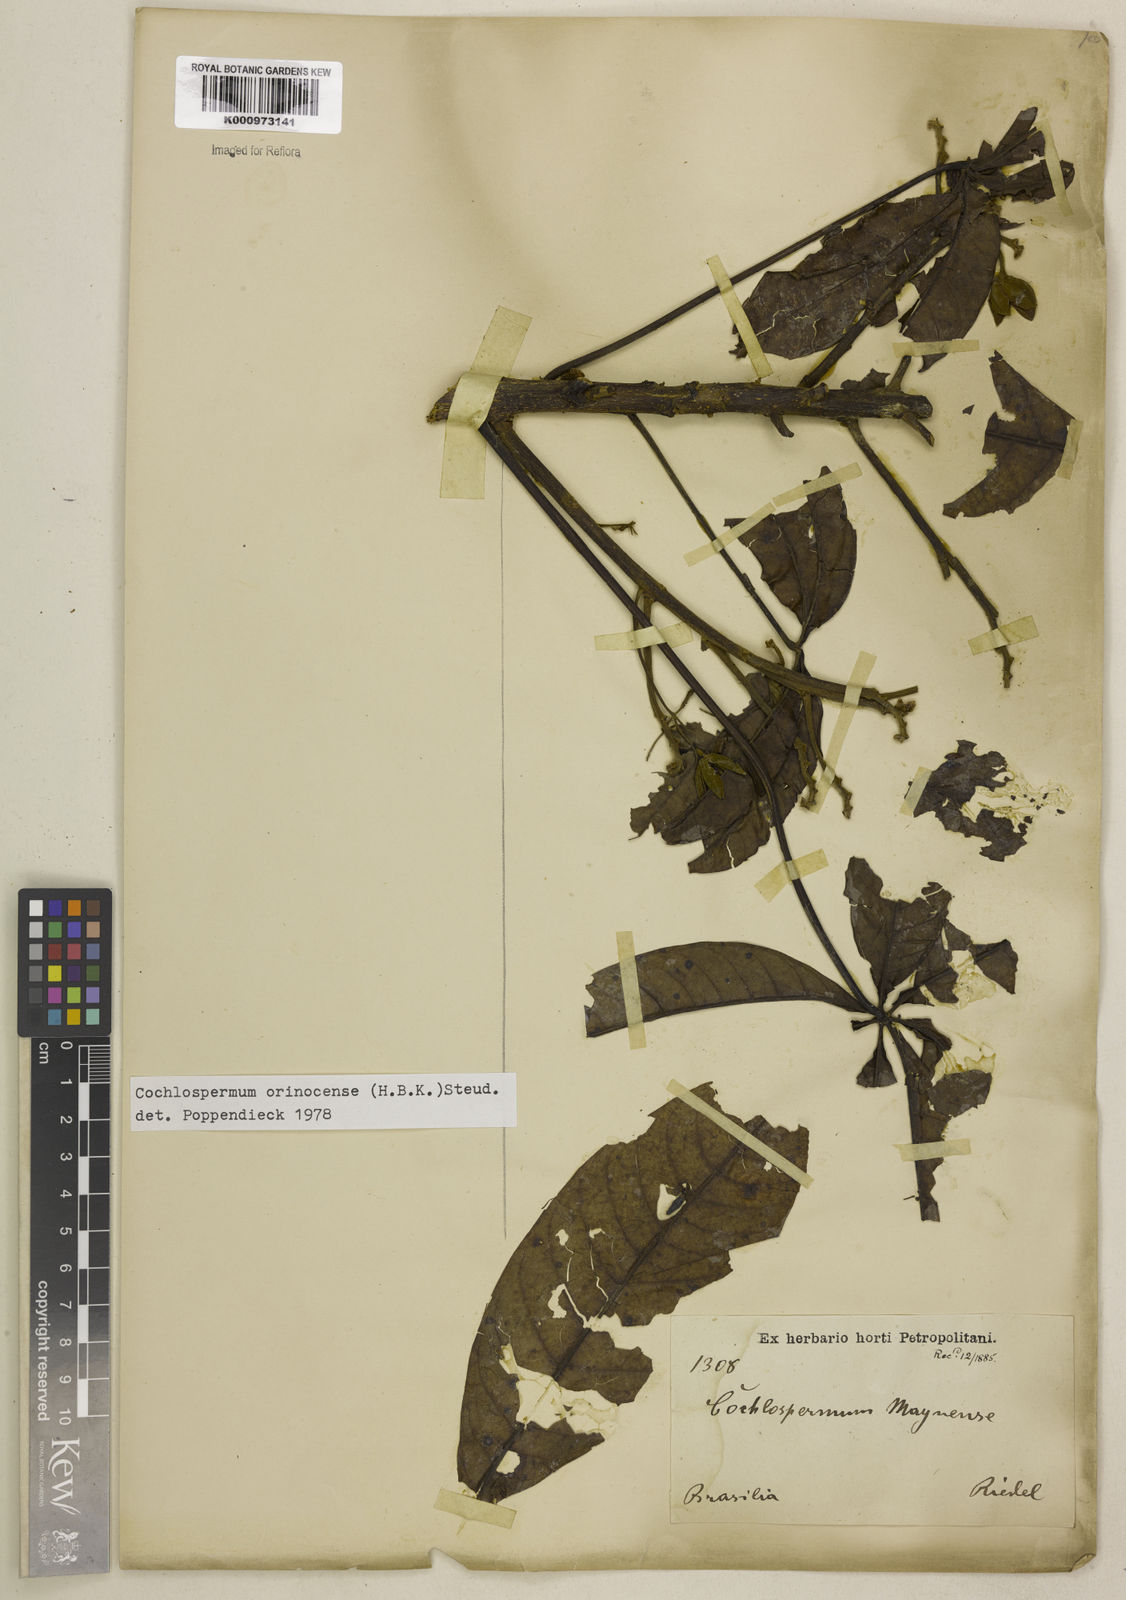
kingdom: Plantae
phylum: Tracheophyta
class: Magnoliopsida
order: Malvales
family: Cochlospermaceae
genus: Cochlospermum
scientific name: Cochlospermum orinocense
